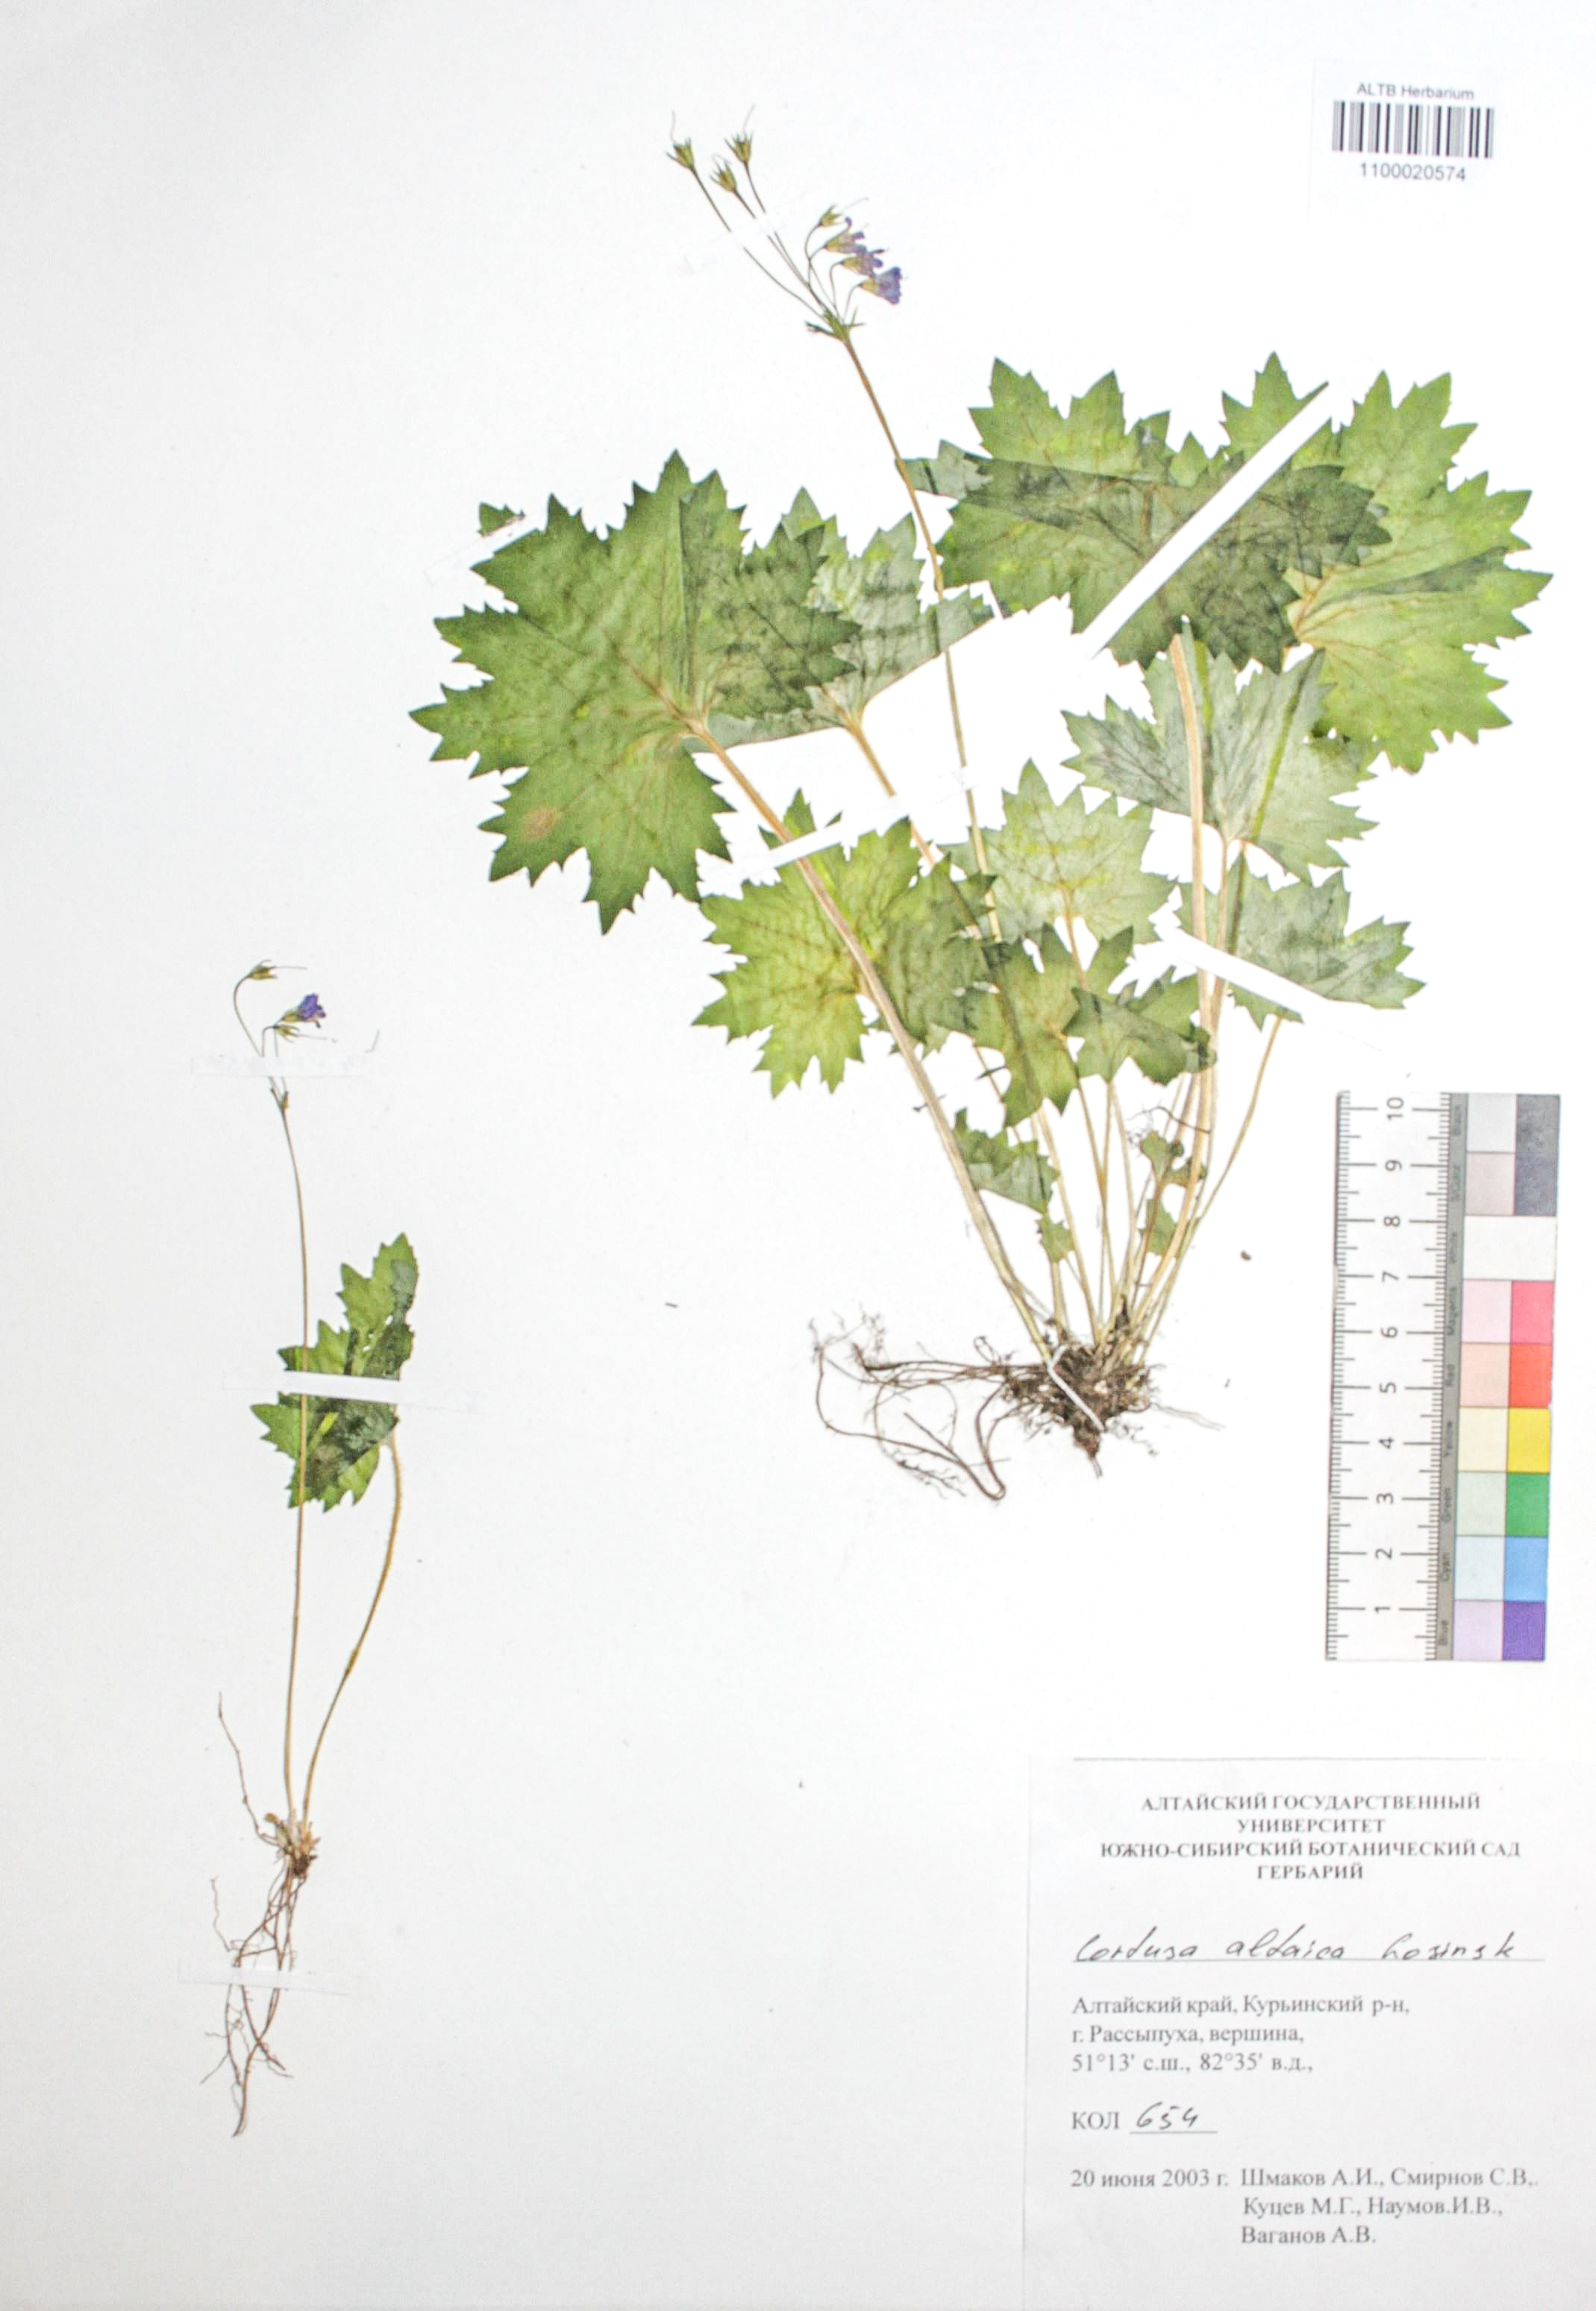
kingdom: Plantae
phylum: Tracheophyta
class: Magnoliopsida
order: Ericales
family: Primulaceae
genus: Primula
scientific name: Primula matthioli
